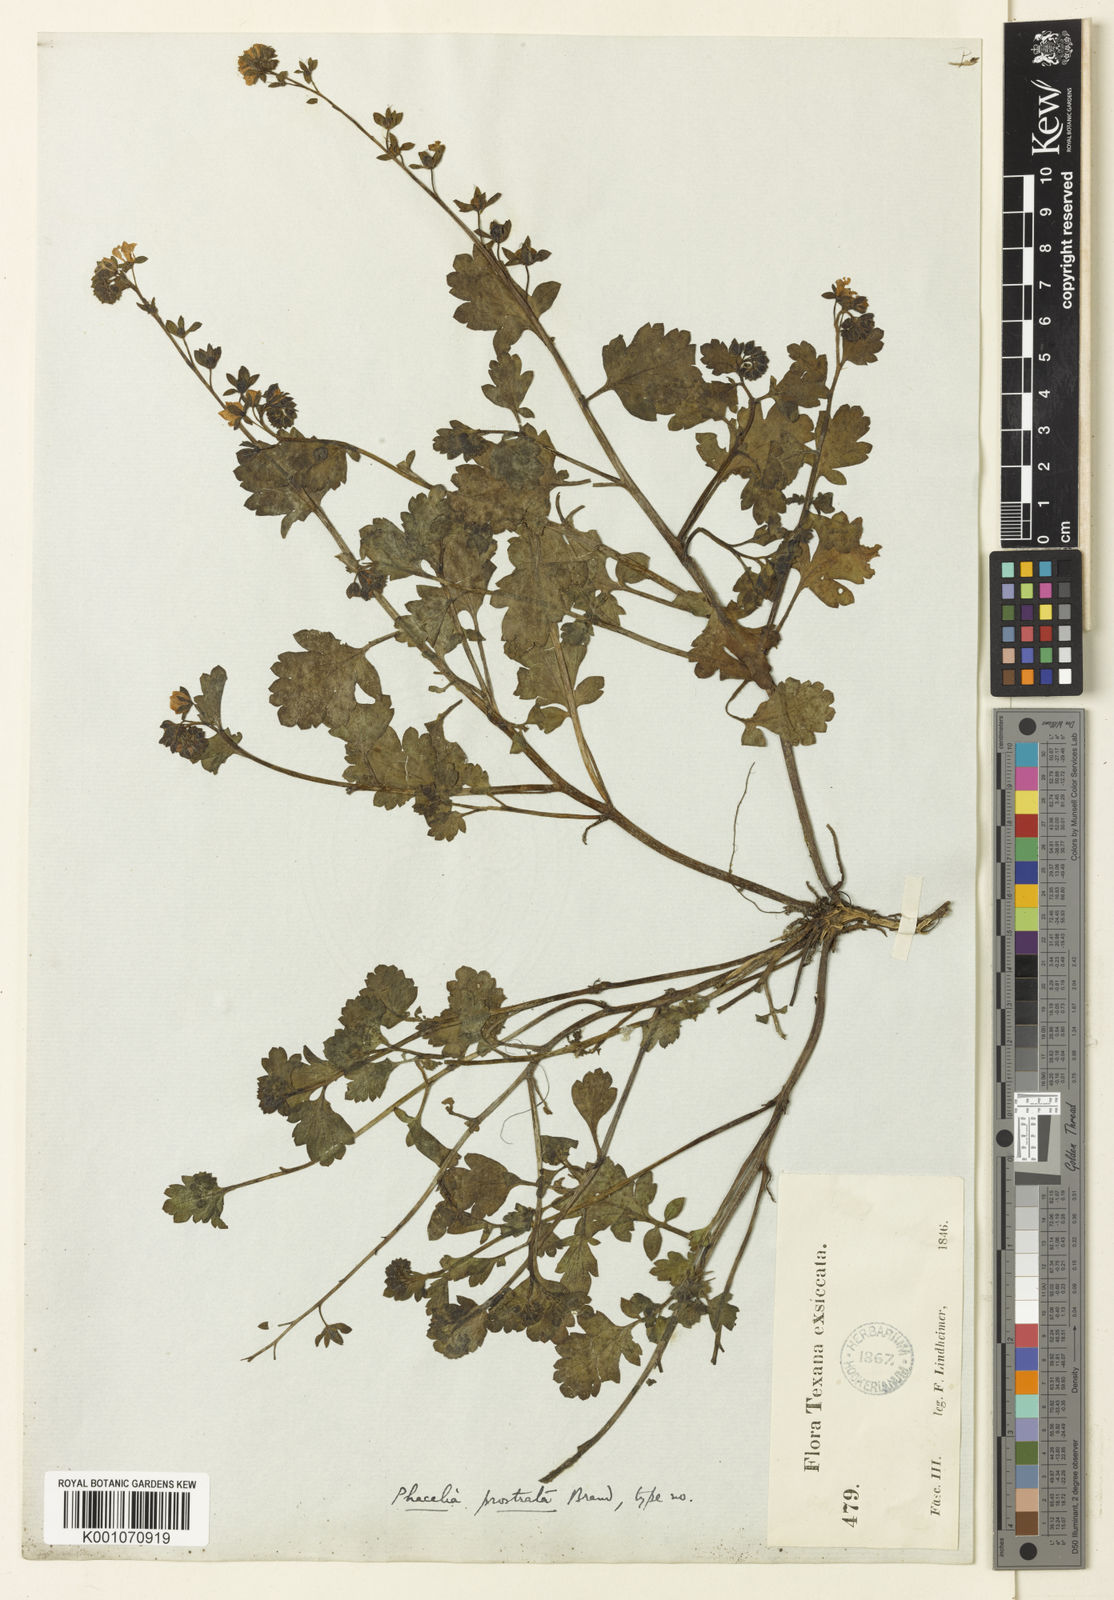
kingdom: Plantae
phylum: Tracheophyta
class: Magnoliopsida
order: Boraginales
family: Hydrophyllaceae
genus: Phacelia
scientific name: Phacelia laxa
